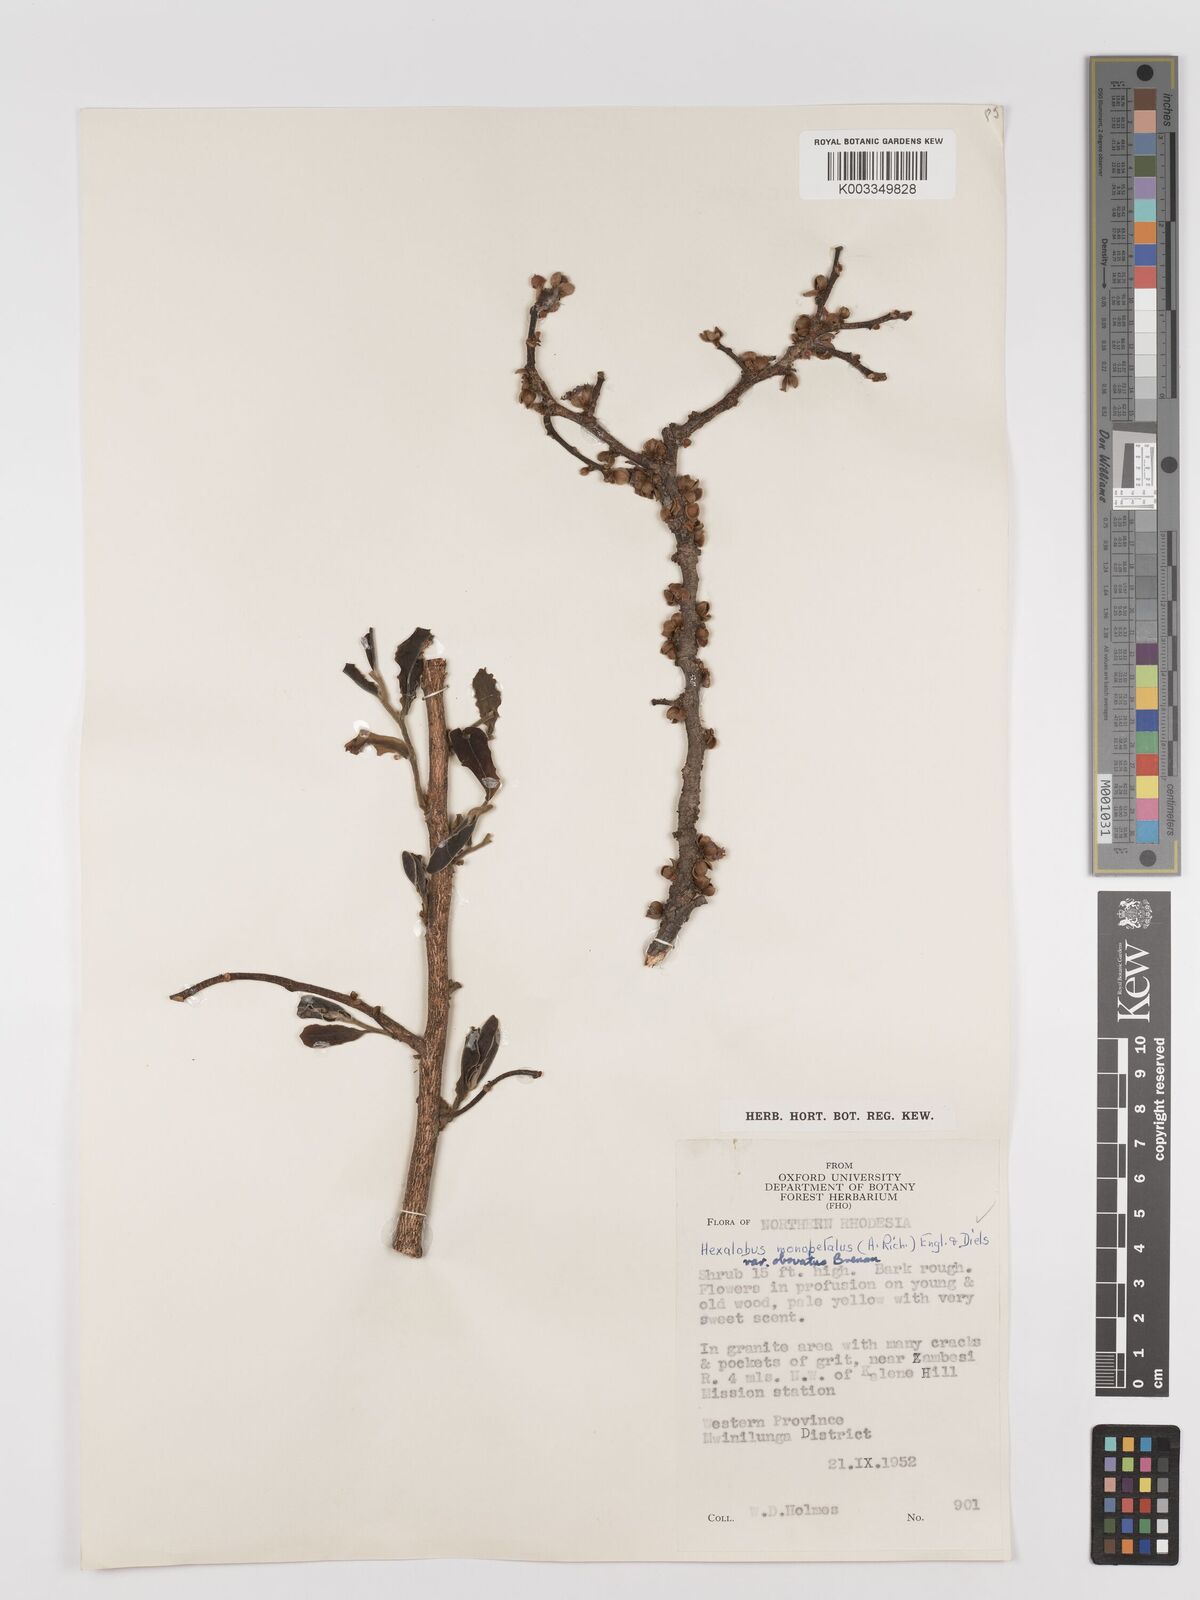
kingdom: Plantae
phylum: Tracheophyta
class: Magnoliopsida
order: Magnoliales
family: Annonaceae
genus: Hexalobus
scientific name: Hexalobus monopetalus
